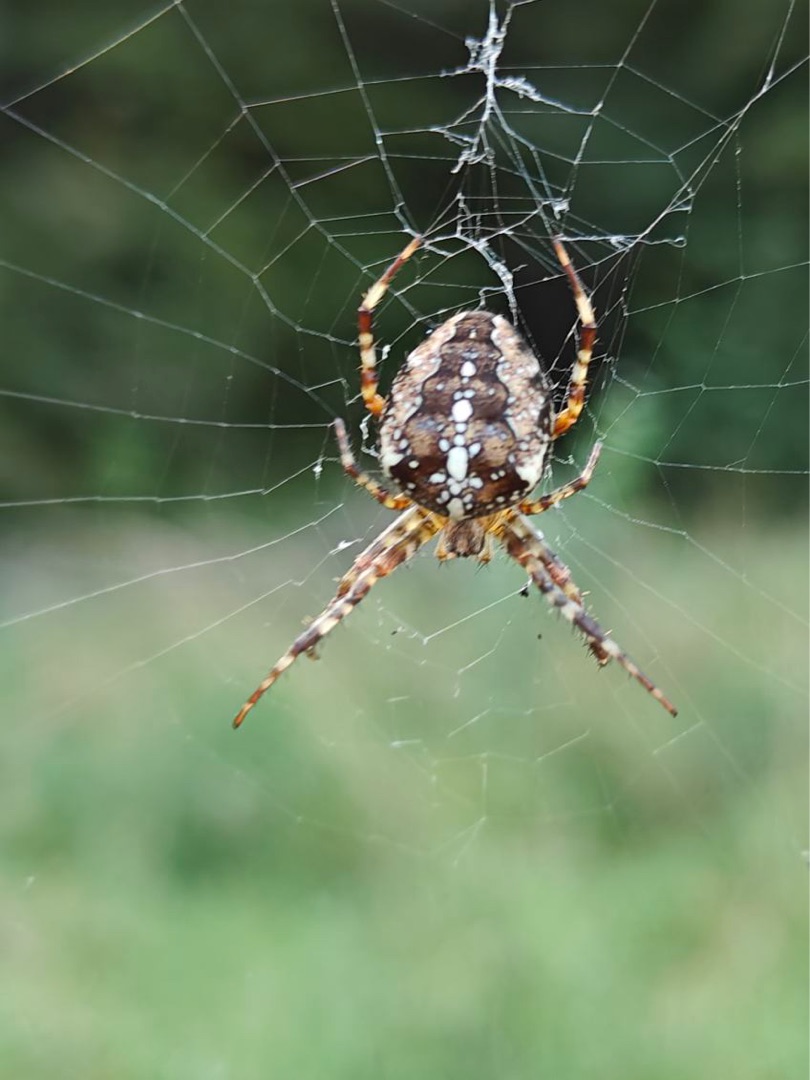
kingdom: Animalia
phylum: Arthropoda
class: Arachnida
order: Araneae
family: Araneidae
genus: Araneus
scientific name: Araneus diadematus
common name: Korsedderkop
